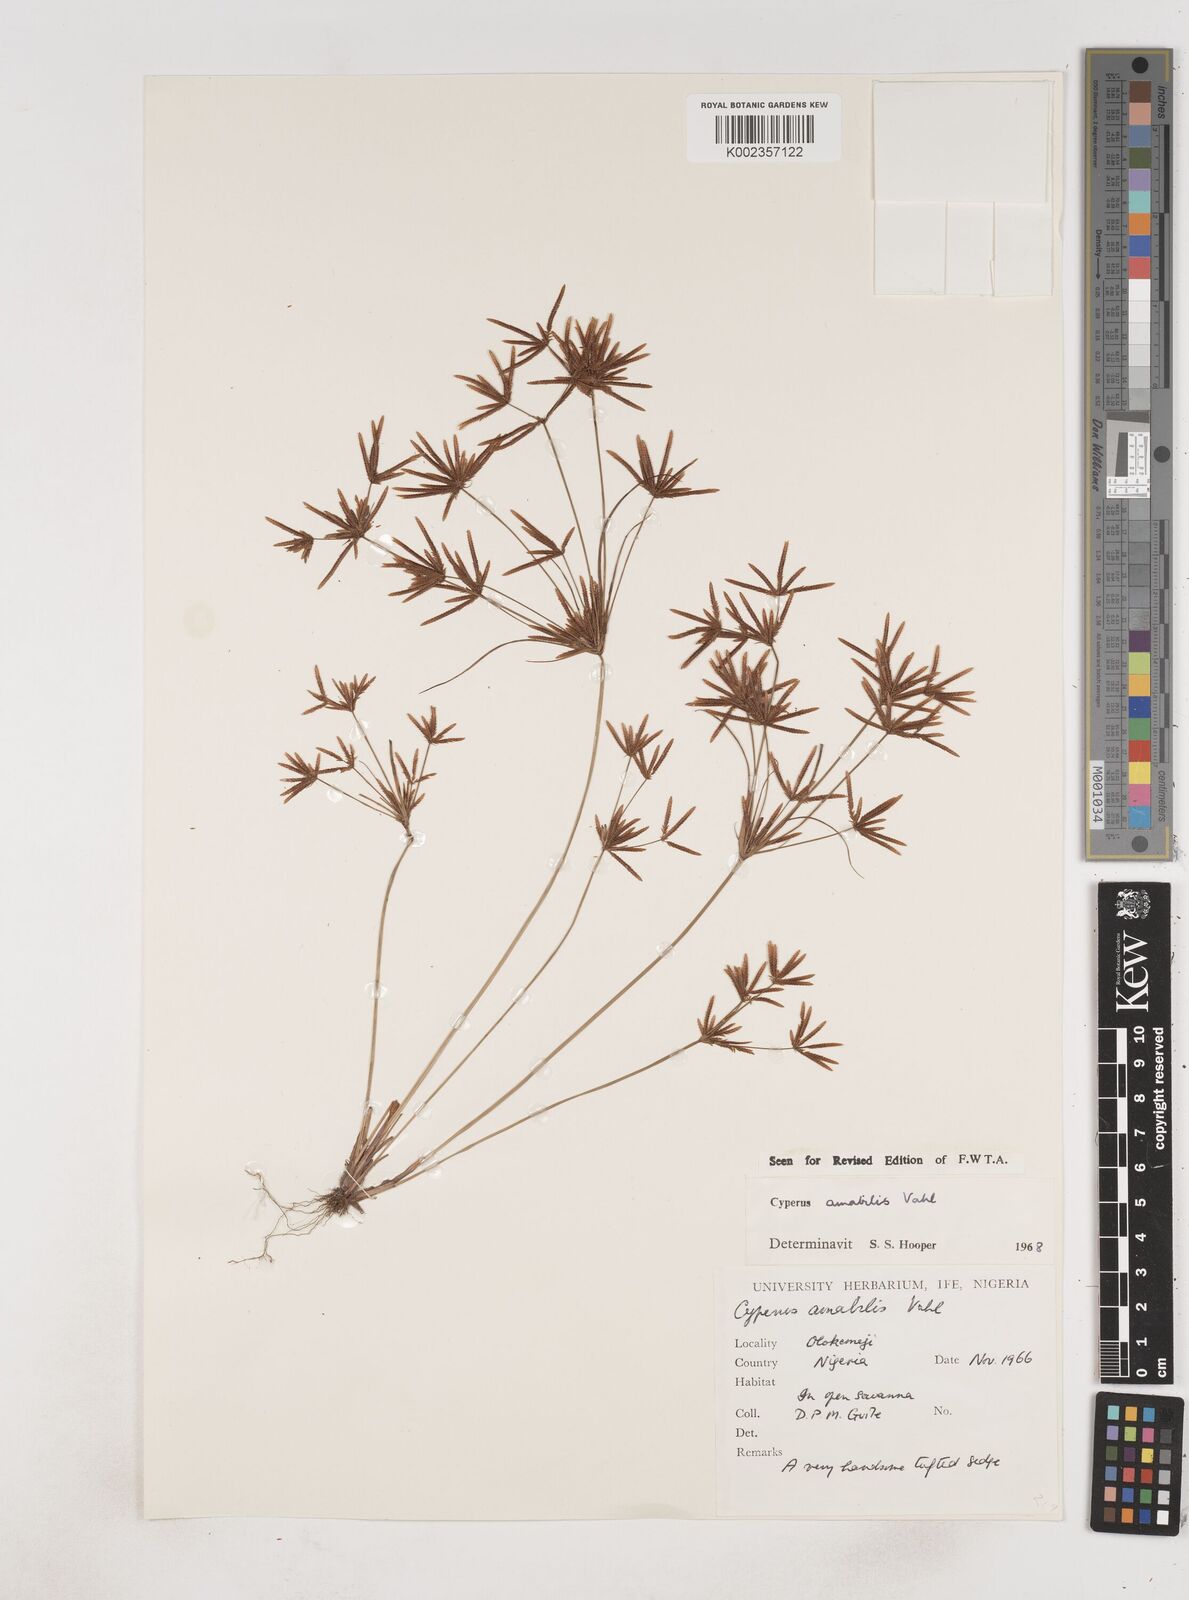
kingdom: Plantae
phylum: Tracheophyta
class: Liliopsida
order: Poales
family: Cyperaceae
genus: Cyperus
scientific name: Cyperus amabilis
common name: Foothill flat sedge
